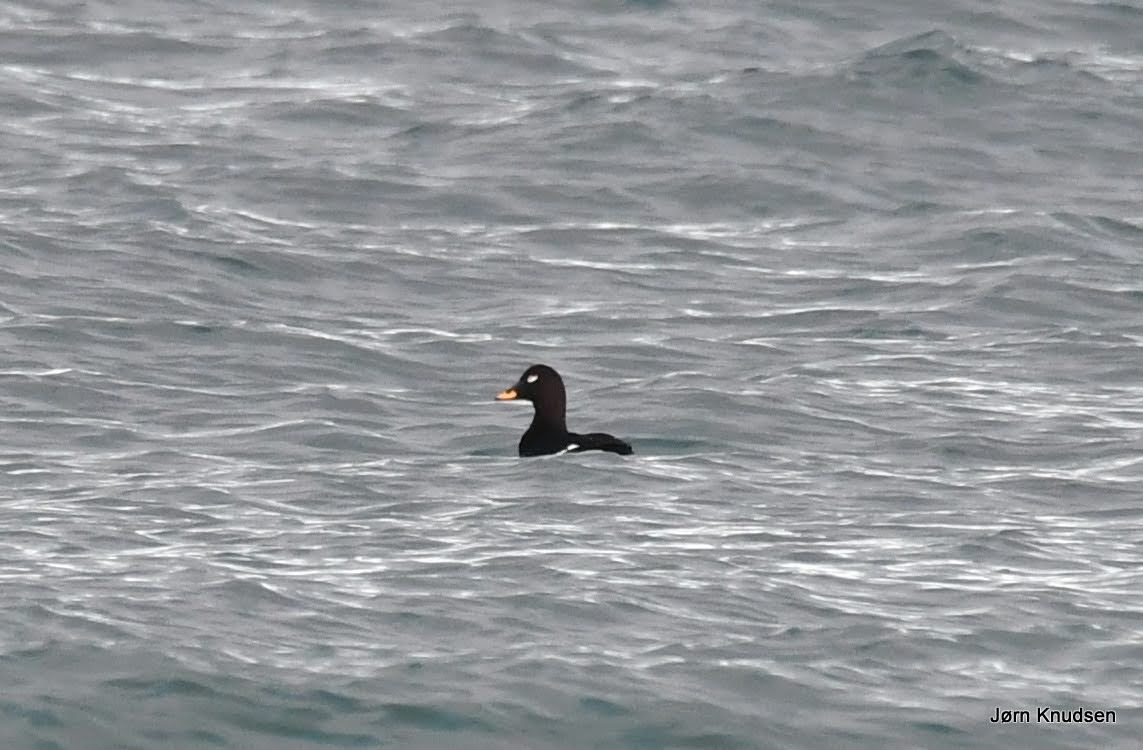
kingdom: Animalia
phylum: Chordata
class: Aves
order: Anseriformes
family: Anatidae
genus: Melanitta
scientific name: Melanitta fusca
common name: Fløjlsand
